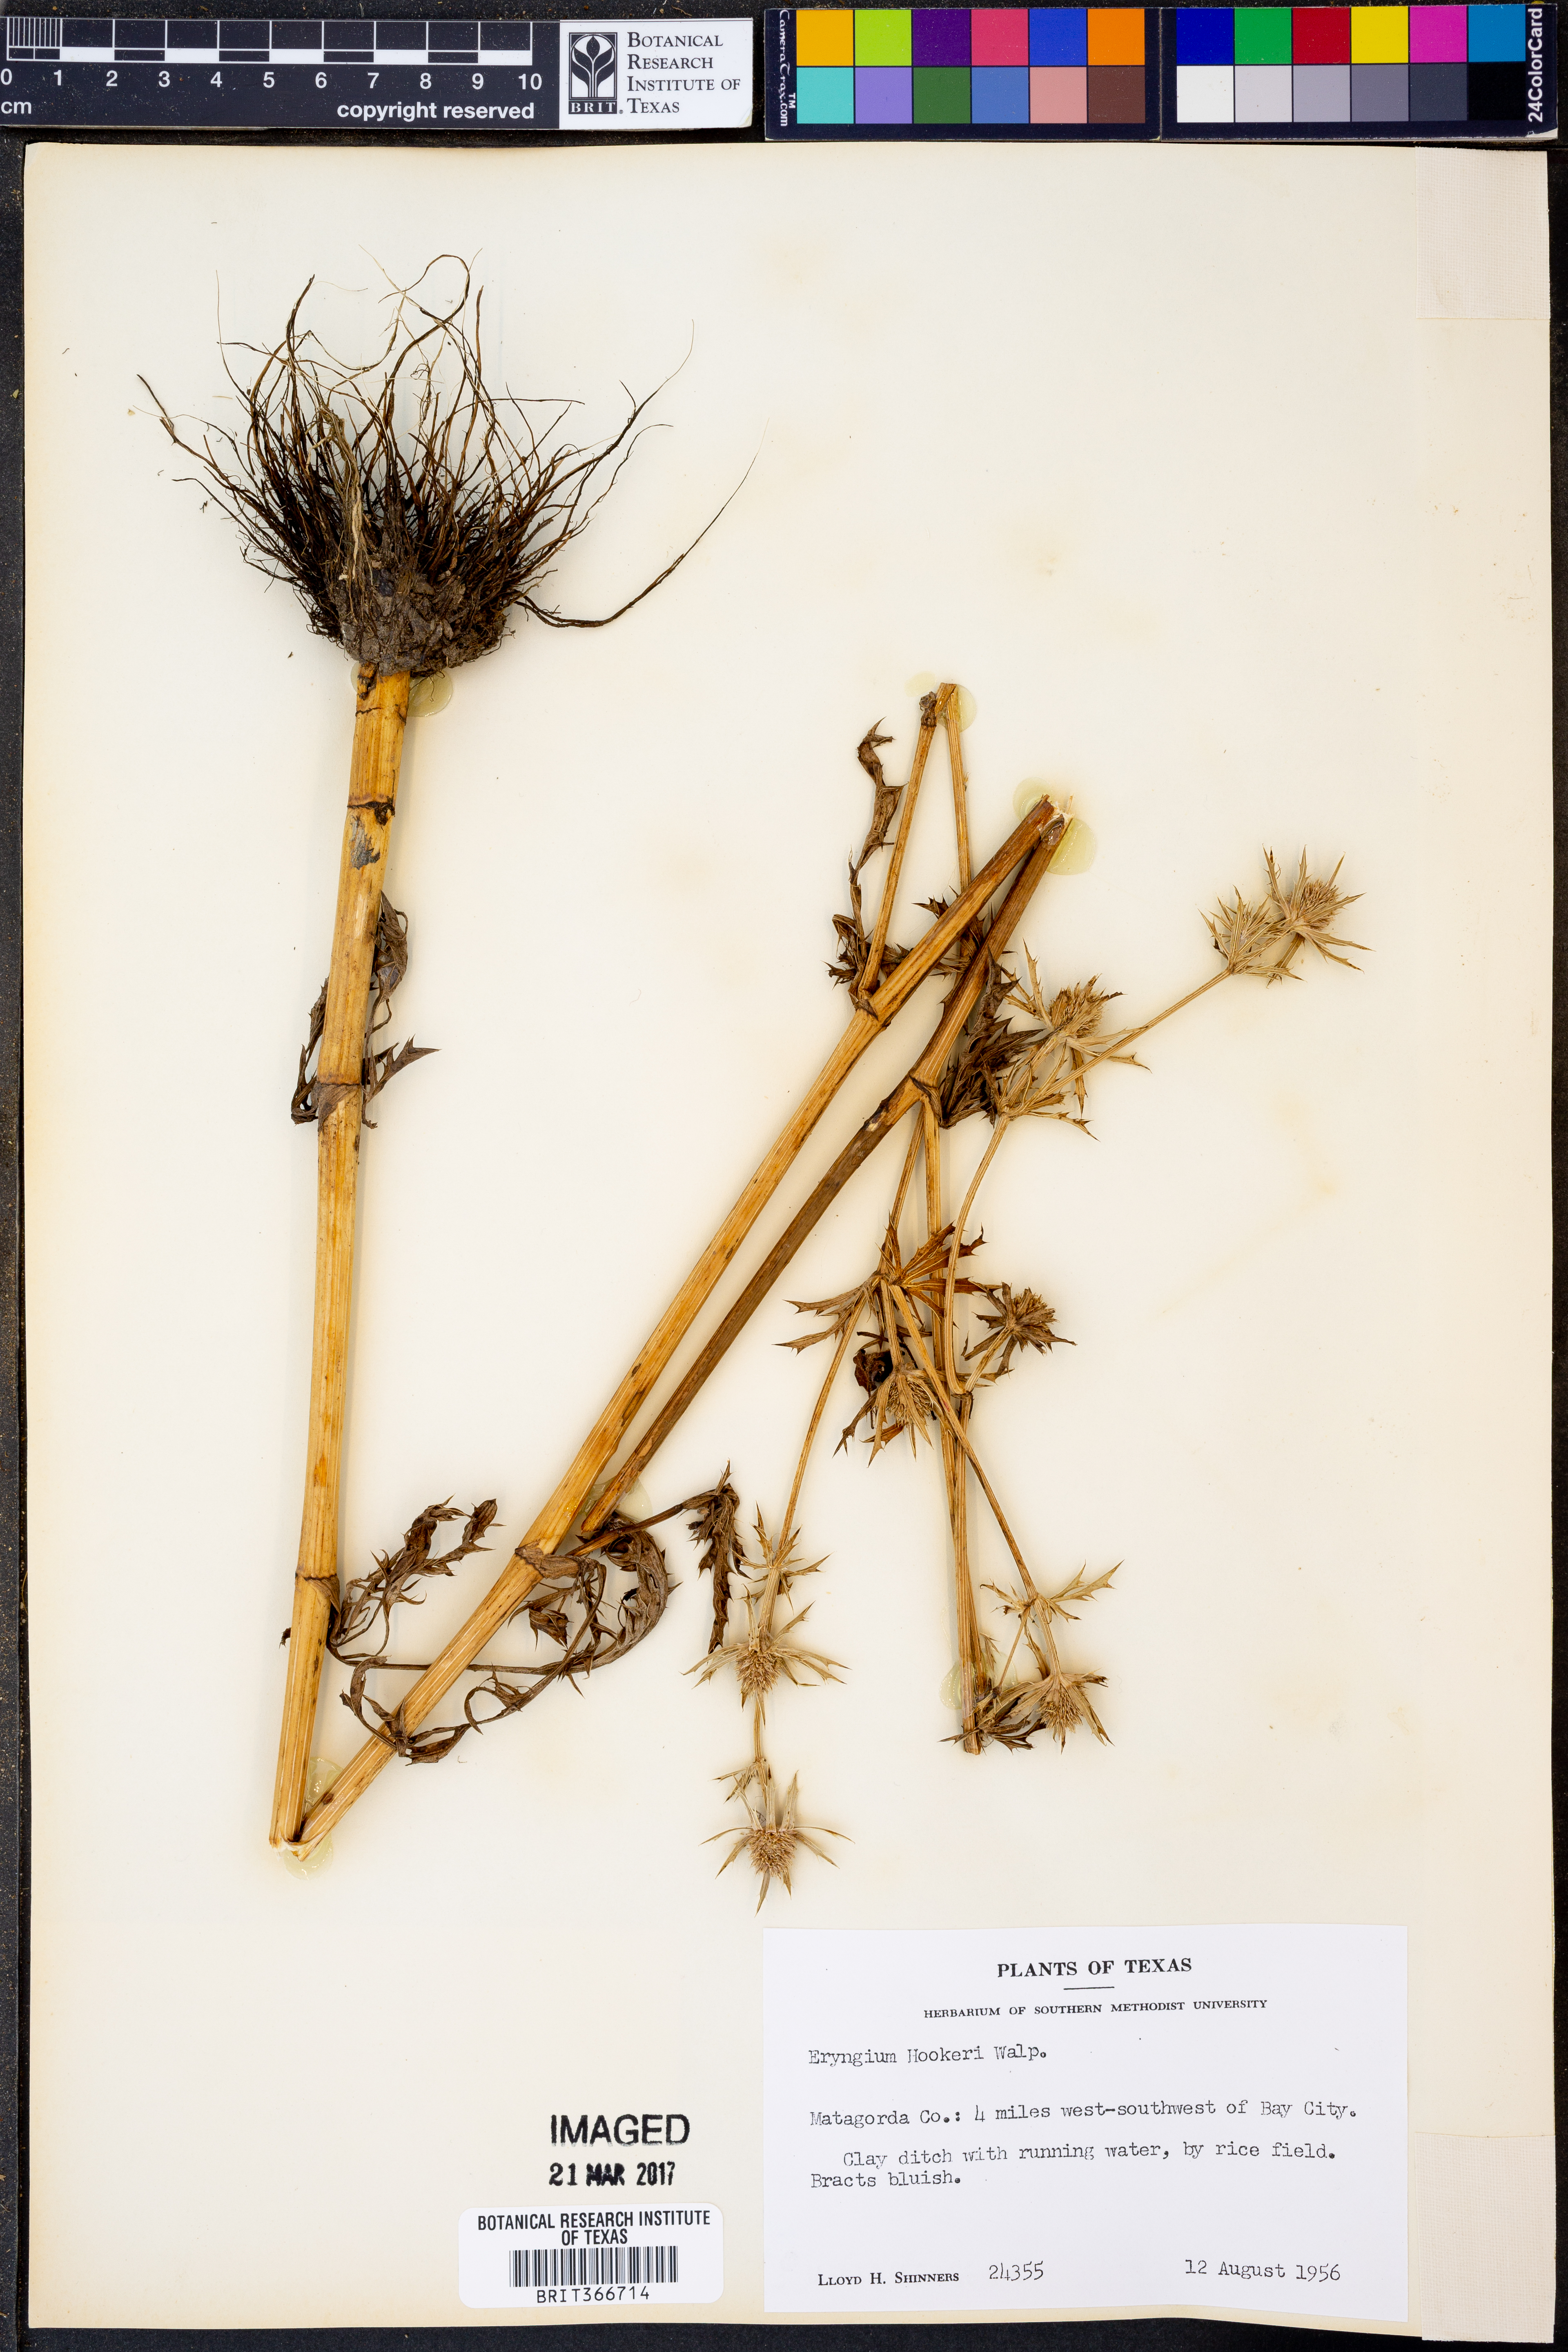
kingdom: Plantae
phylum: Tracheophyta
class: Magnoliopsida
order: Apiales
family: Apiaceae
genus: Eryngium
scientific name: Eryngium hookeri
